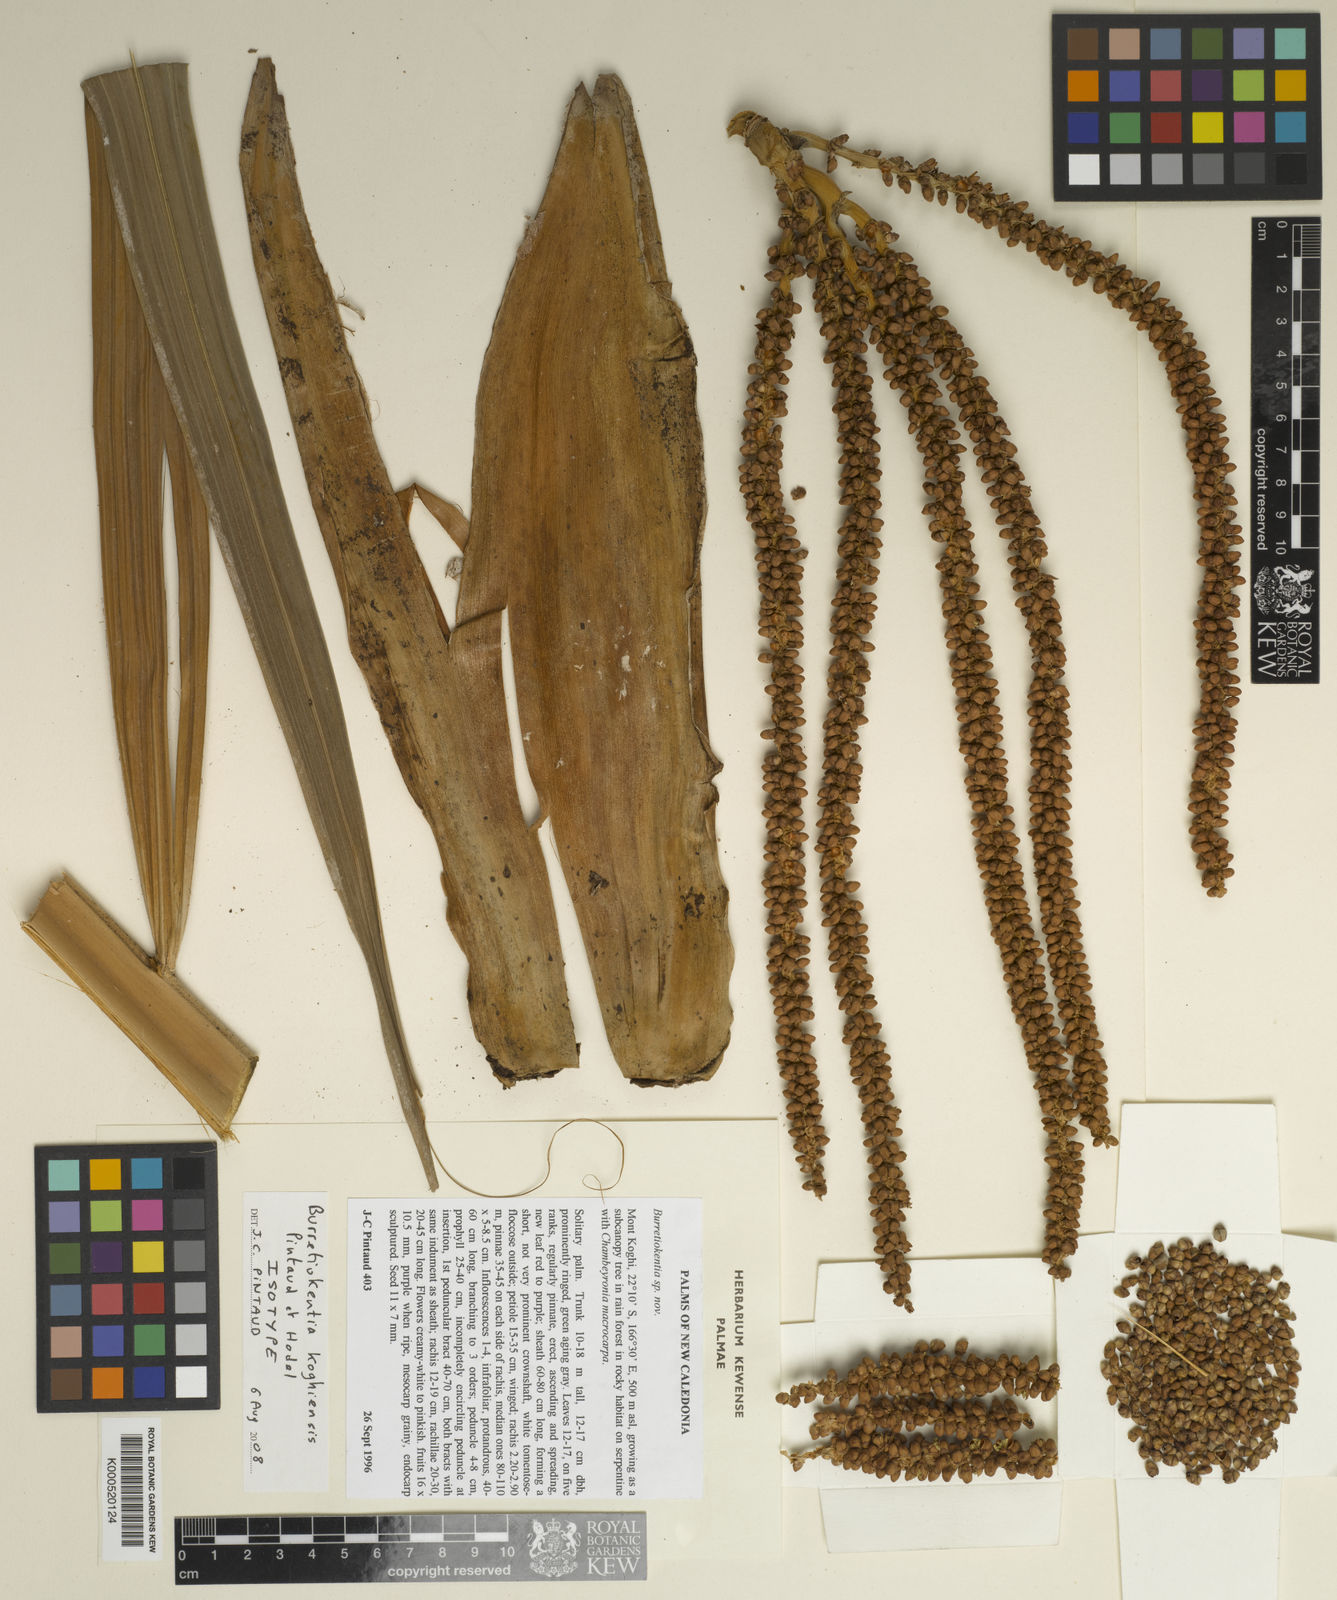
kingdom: Plantae
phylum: Tracheophyta
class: Liliopsida
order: Arecales
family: Arecaceae
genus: Burretiokentia
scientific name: Burretiokentia koghiensis
